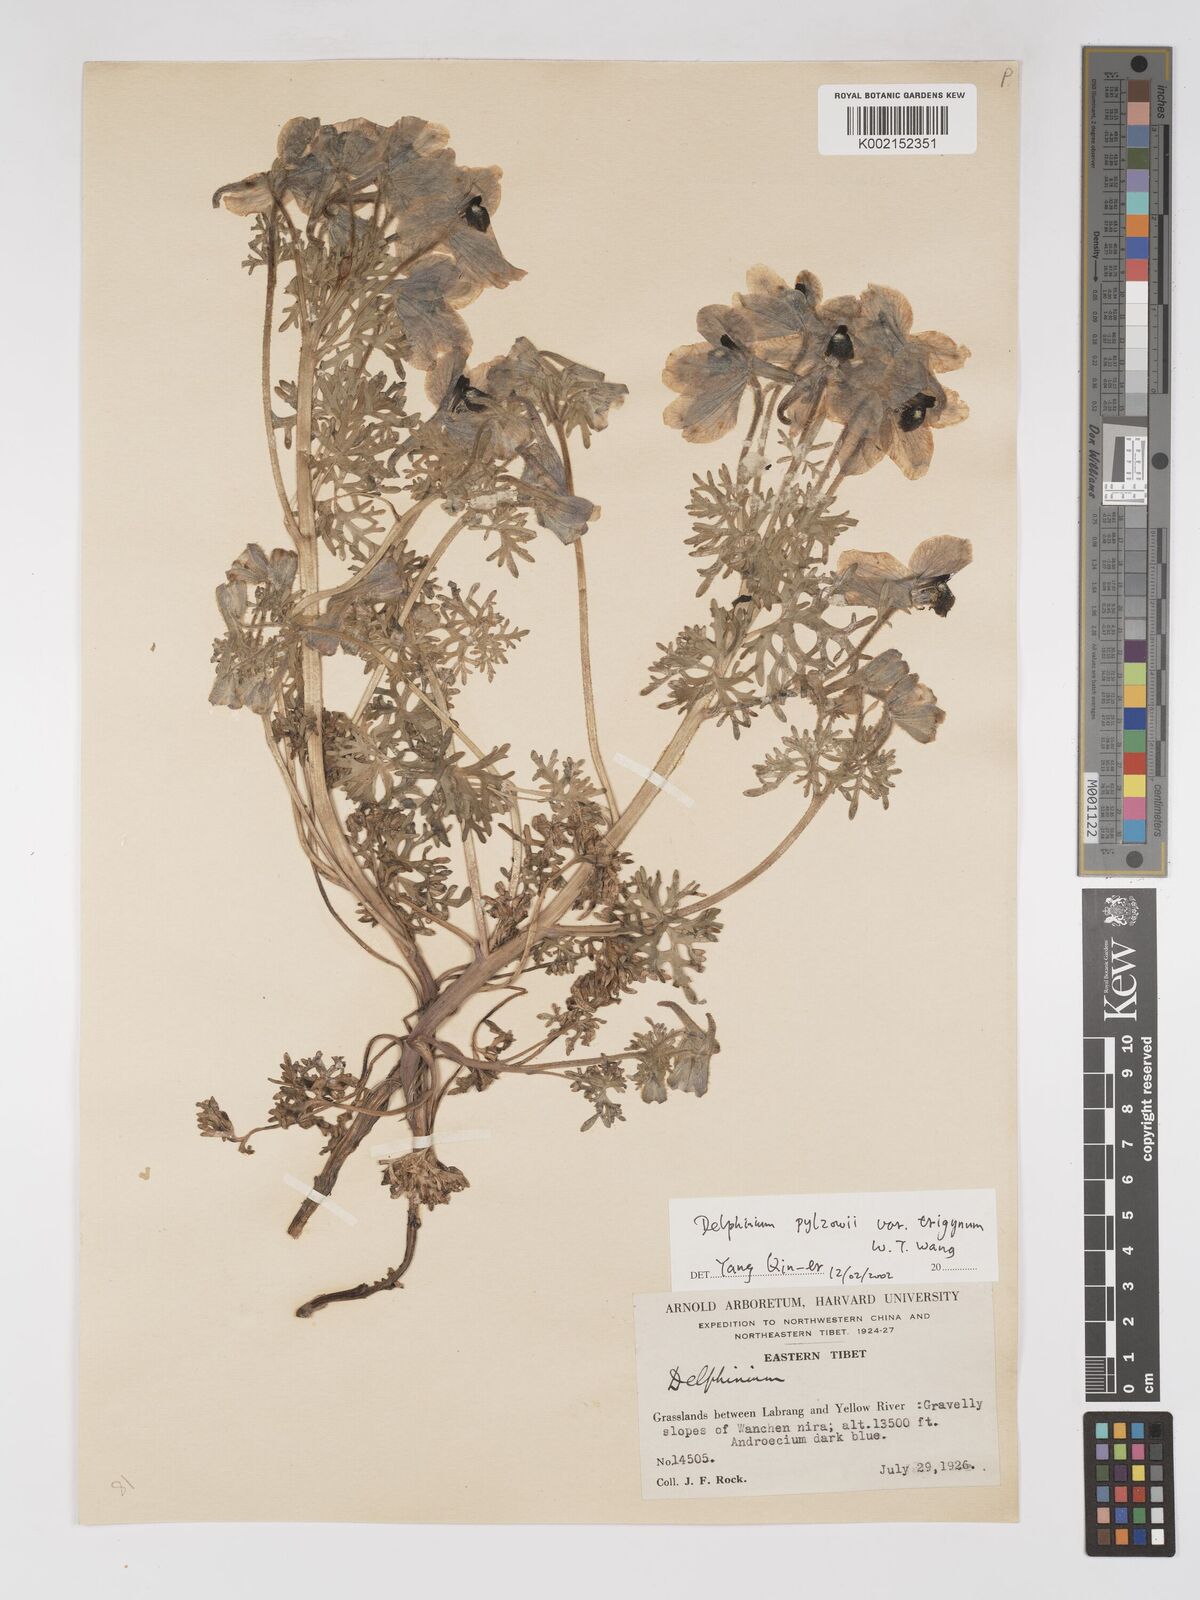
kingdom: Plantae
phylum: Tracheophyta
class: Magnoliopsida
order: Ranunculales
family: Ranunculaceae
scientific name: Ranunculaceae
